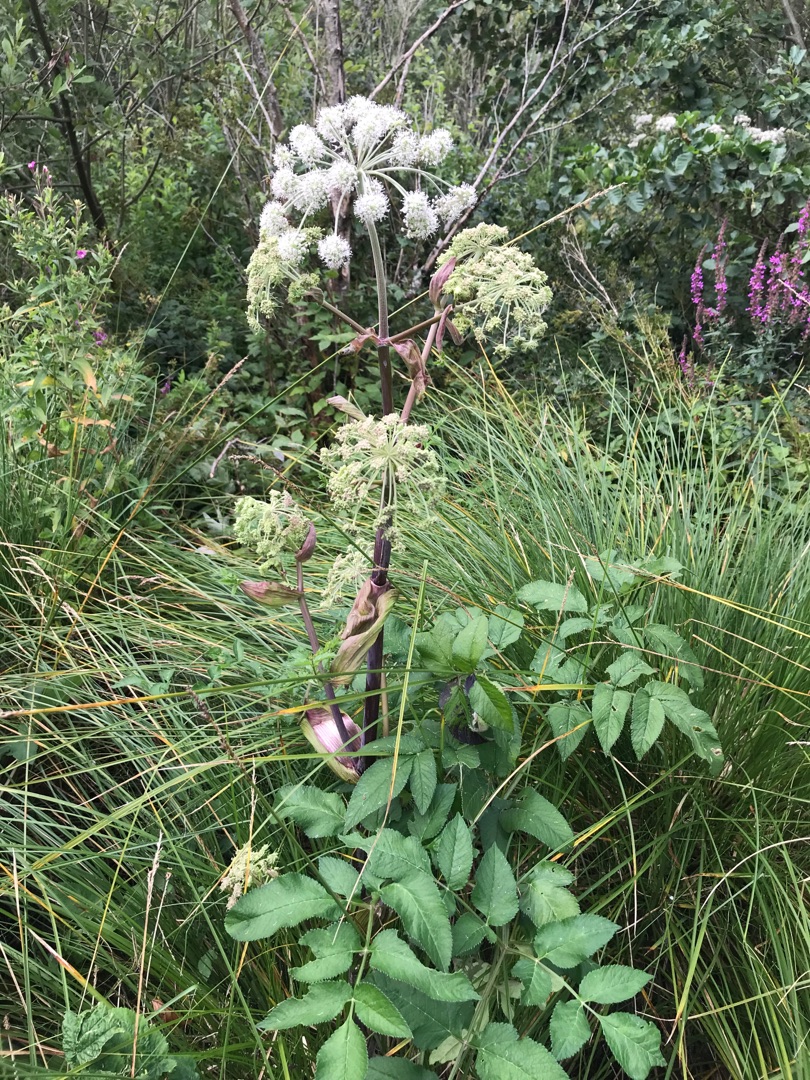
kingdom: Plantae
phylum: Tracheophyta
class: Magnoliopsida
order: Apiales
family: Apiaceae
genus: Angelica
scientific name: Angelica archangelica
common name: Kvan
